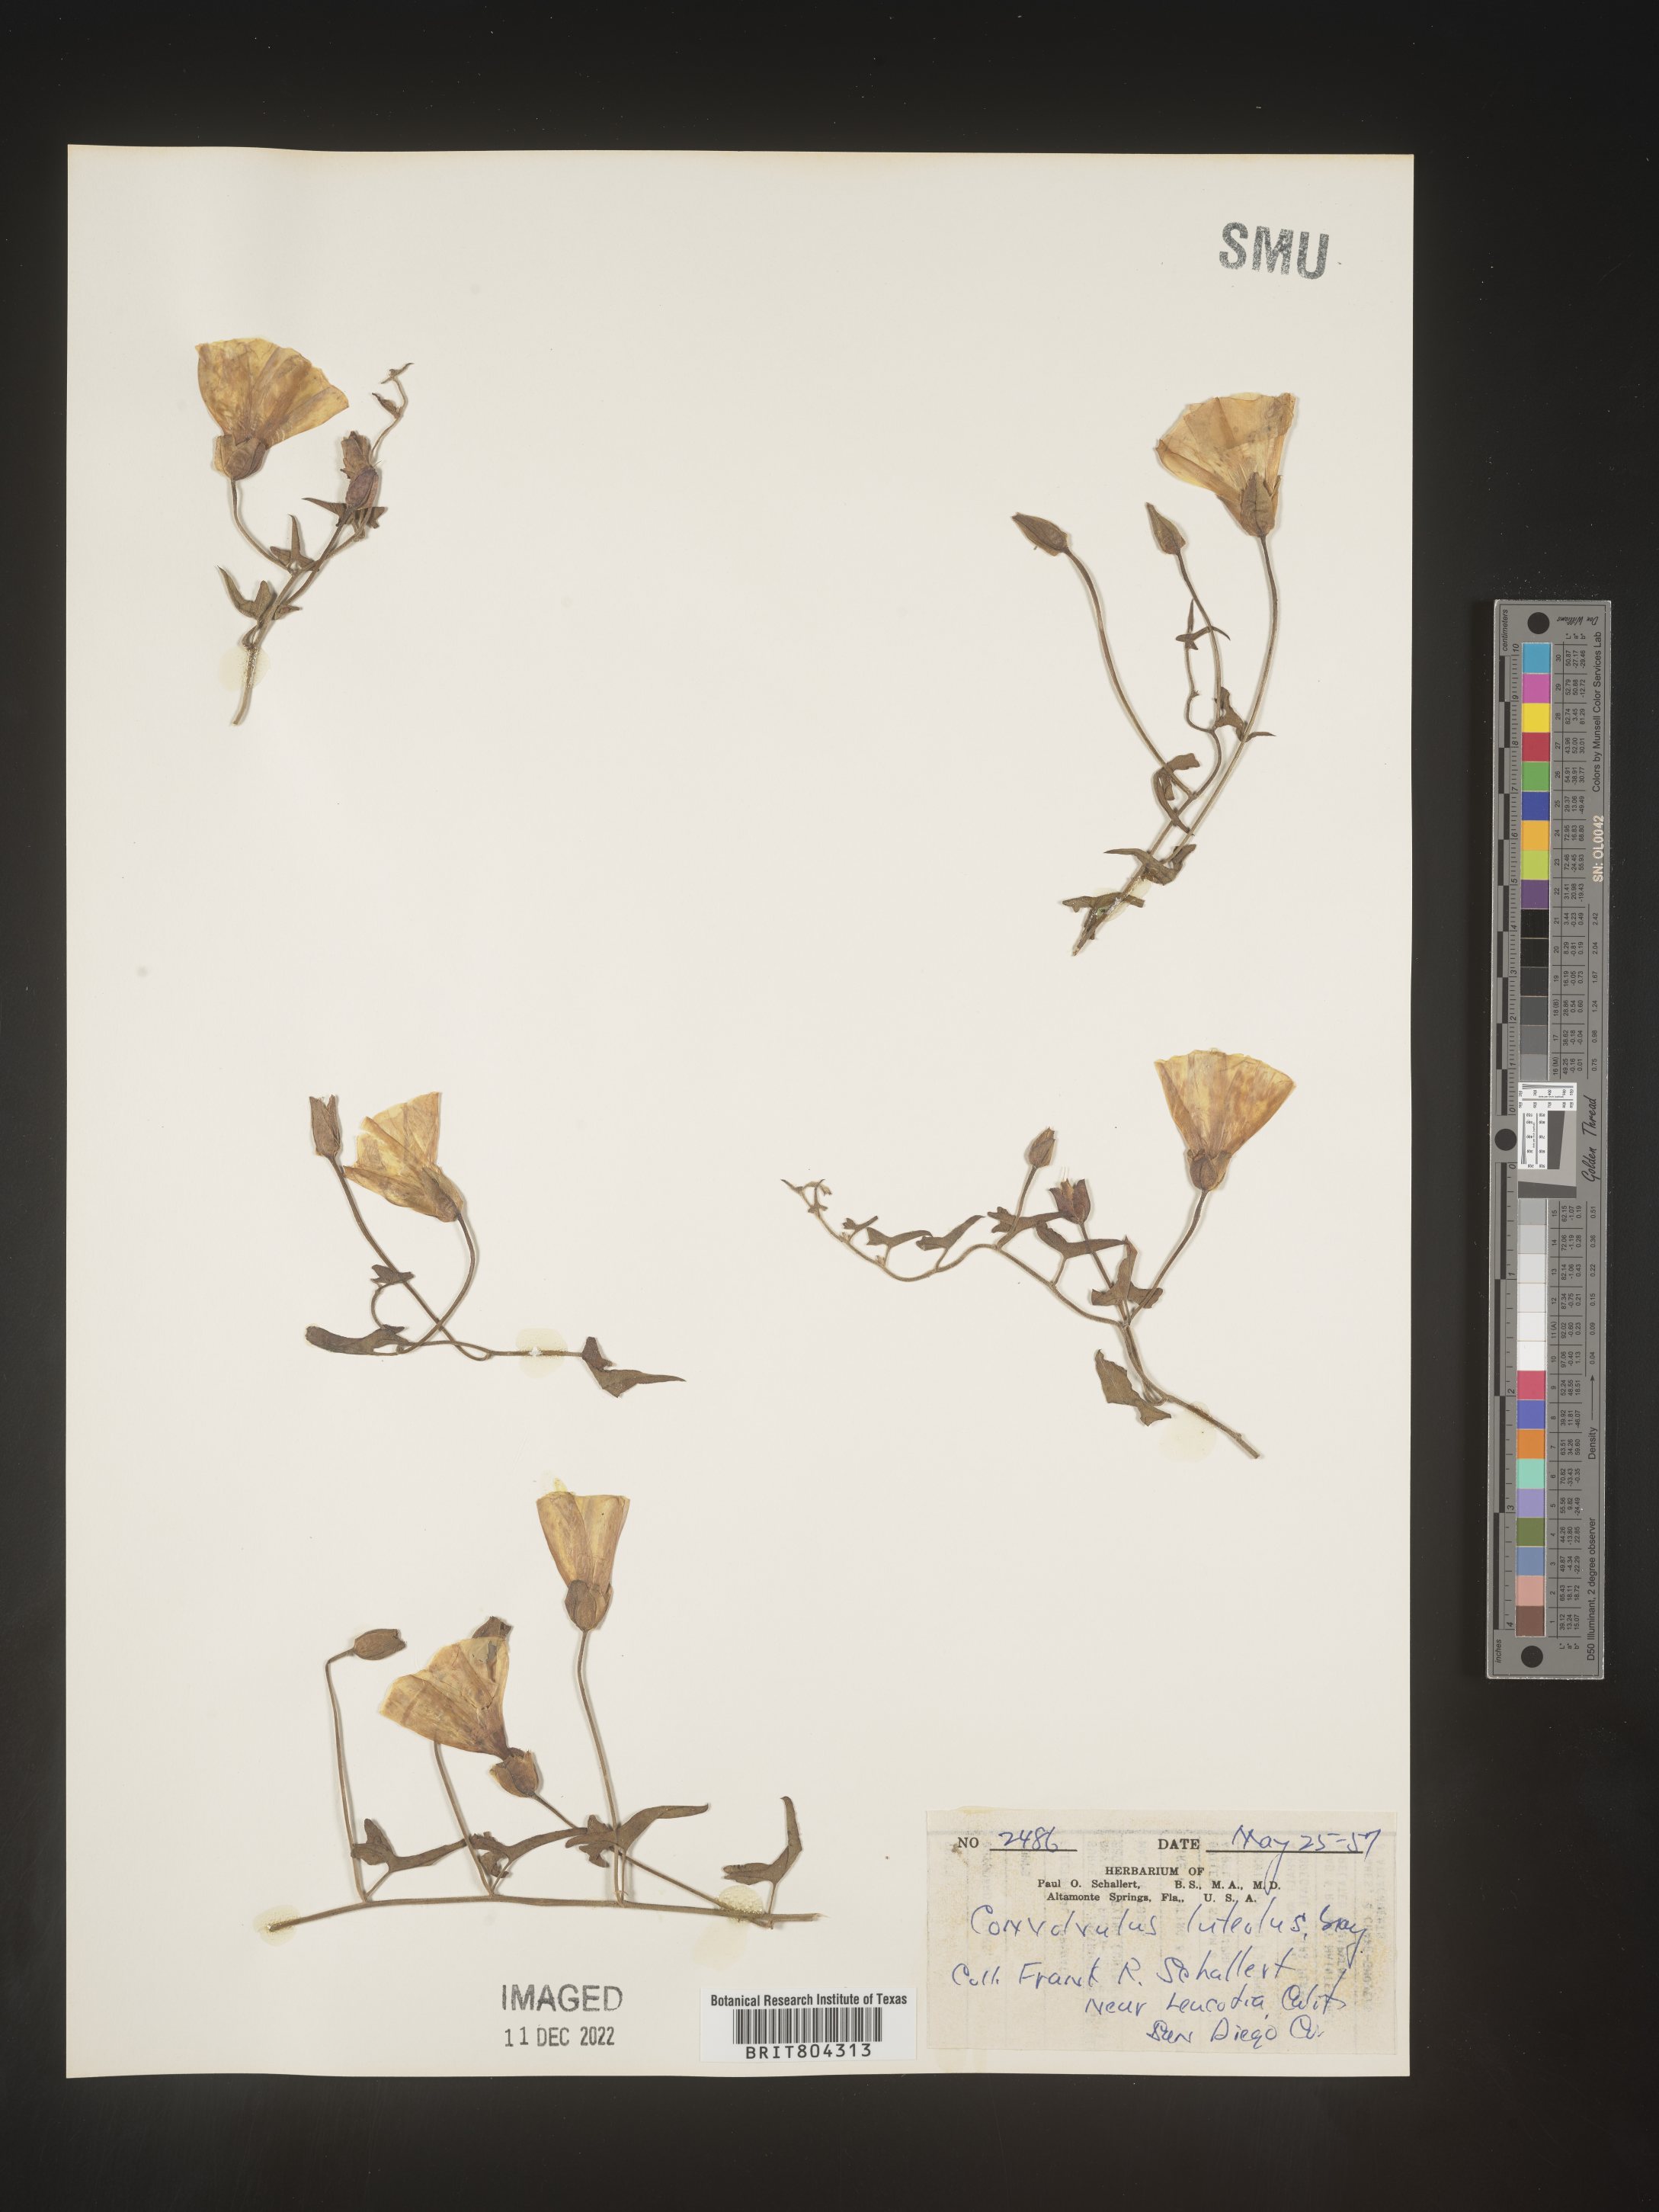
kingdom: Plantae
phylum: Tracheophyta
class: Magnoliopsida
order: Solanales
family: Convolvulaceae
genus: Calystegia
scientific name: Calystegia
